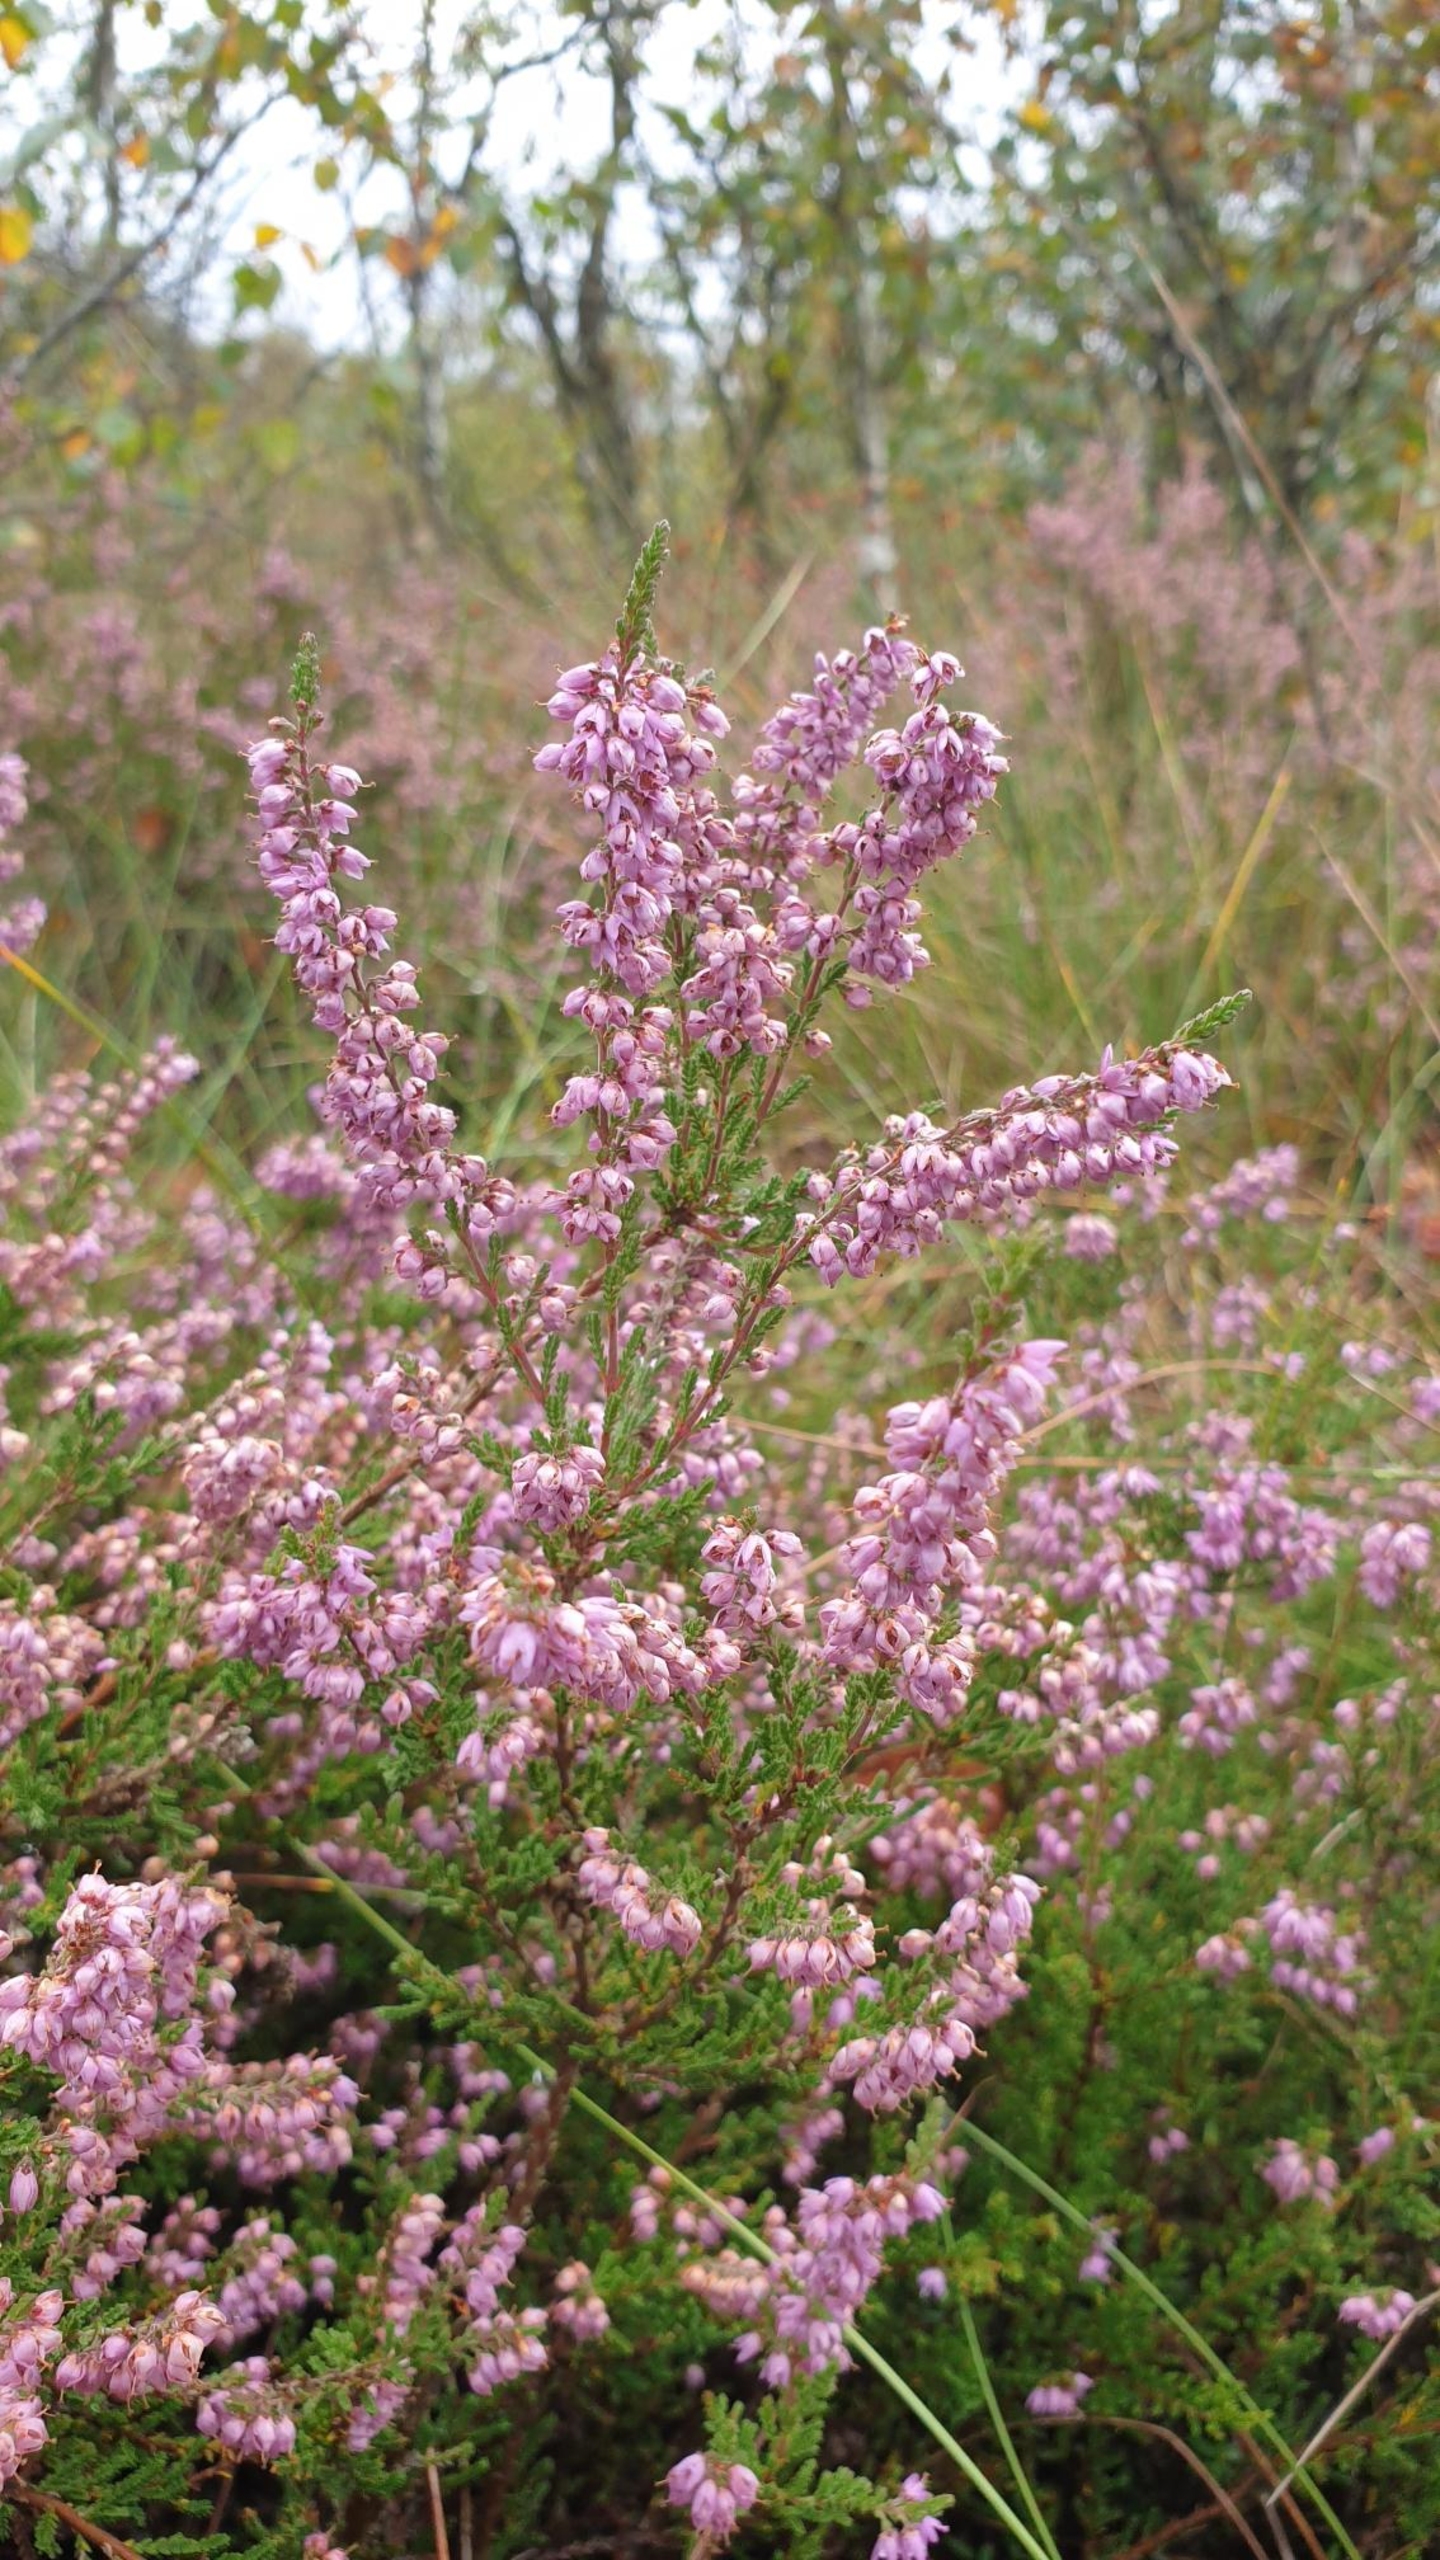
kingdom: Plantae
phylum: Tracheophyta
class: Magnoliopsida
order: Ericales
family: Ericaceae
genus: Calluna
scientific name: Calluna vulgaris
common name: Hedelyng
